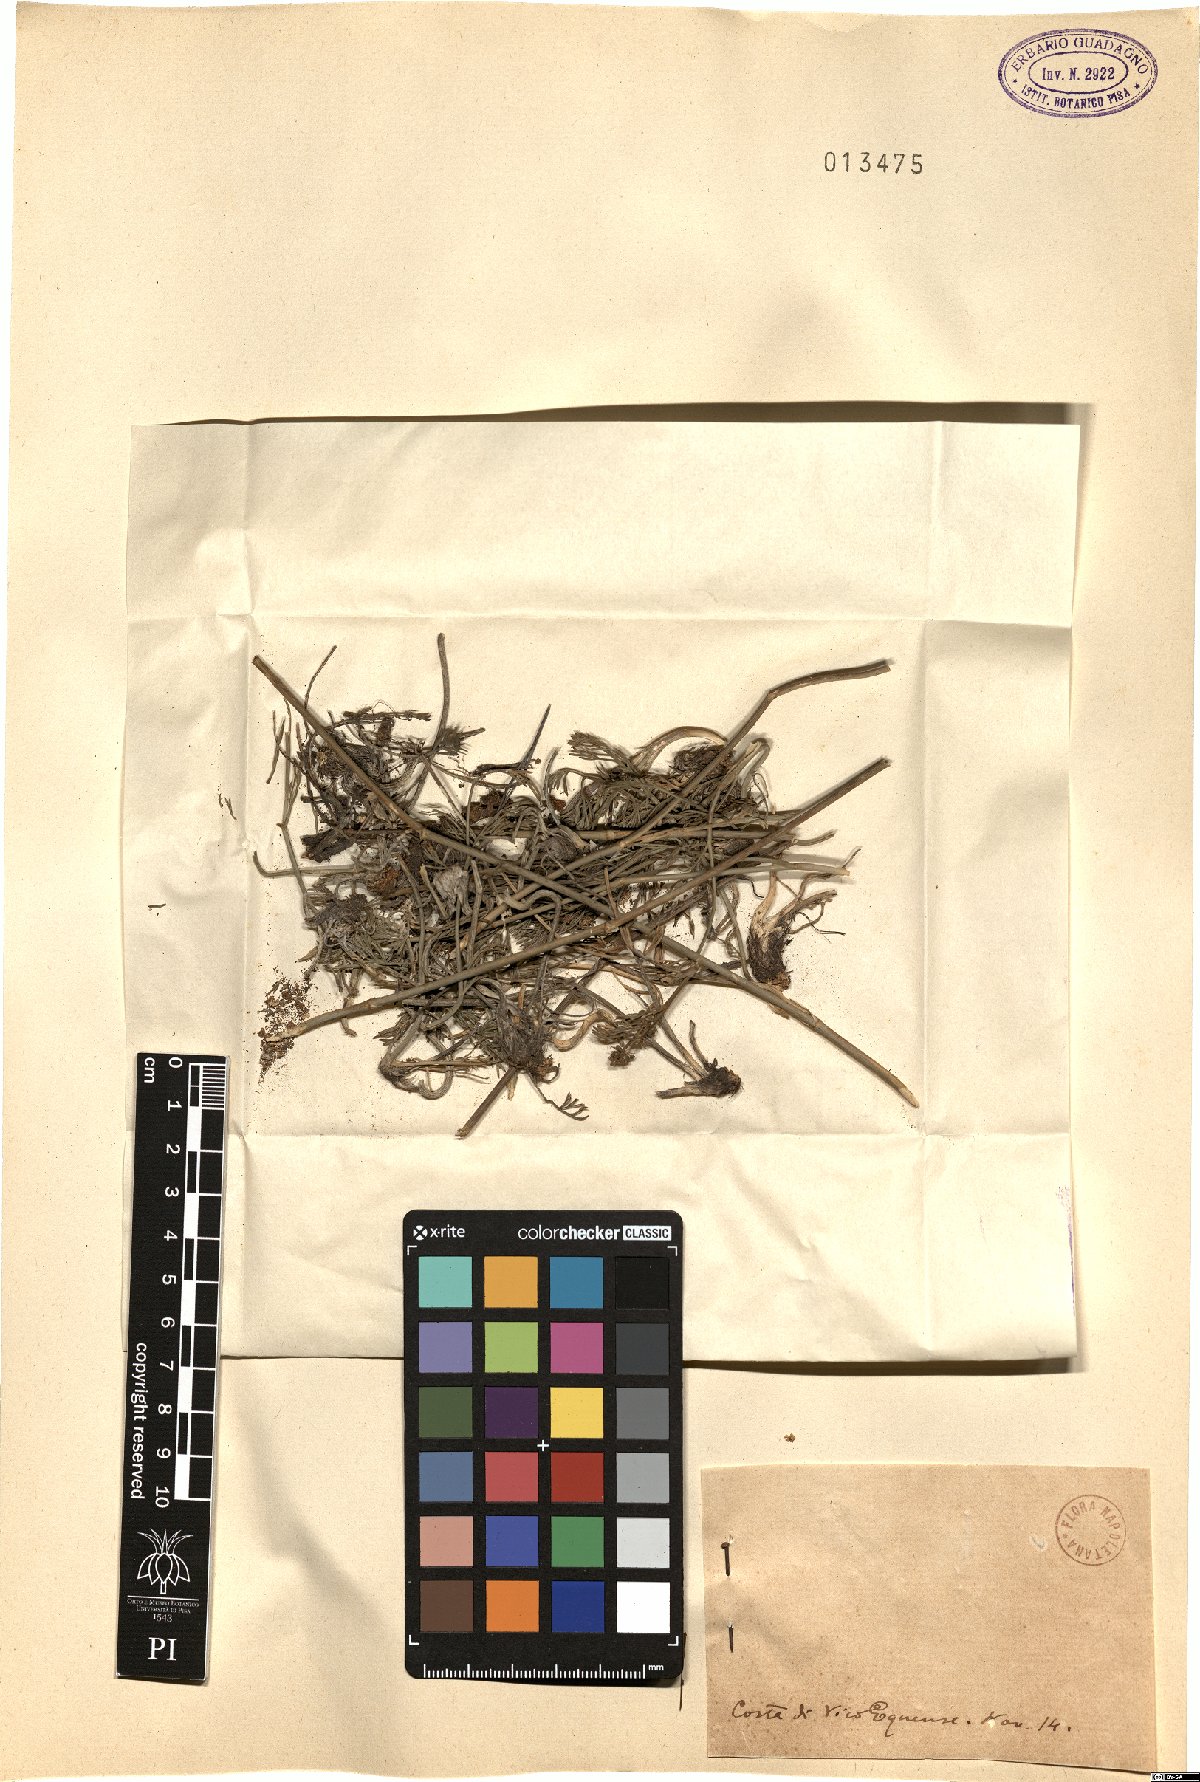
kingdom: Plantae
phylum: Tracheophyta
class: Magnoliopsida
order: Apiales
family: Apiaceae
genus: Seseli
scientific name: Seseli
